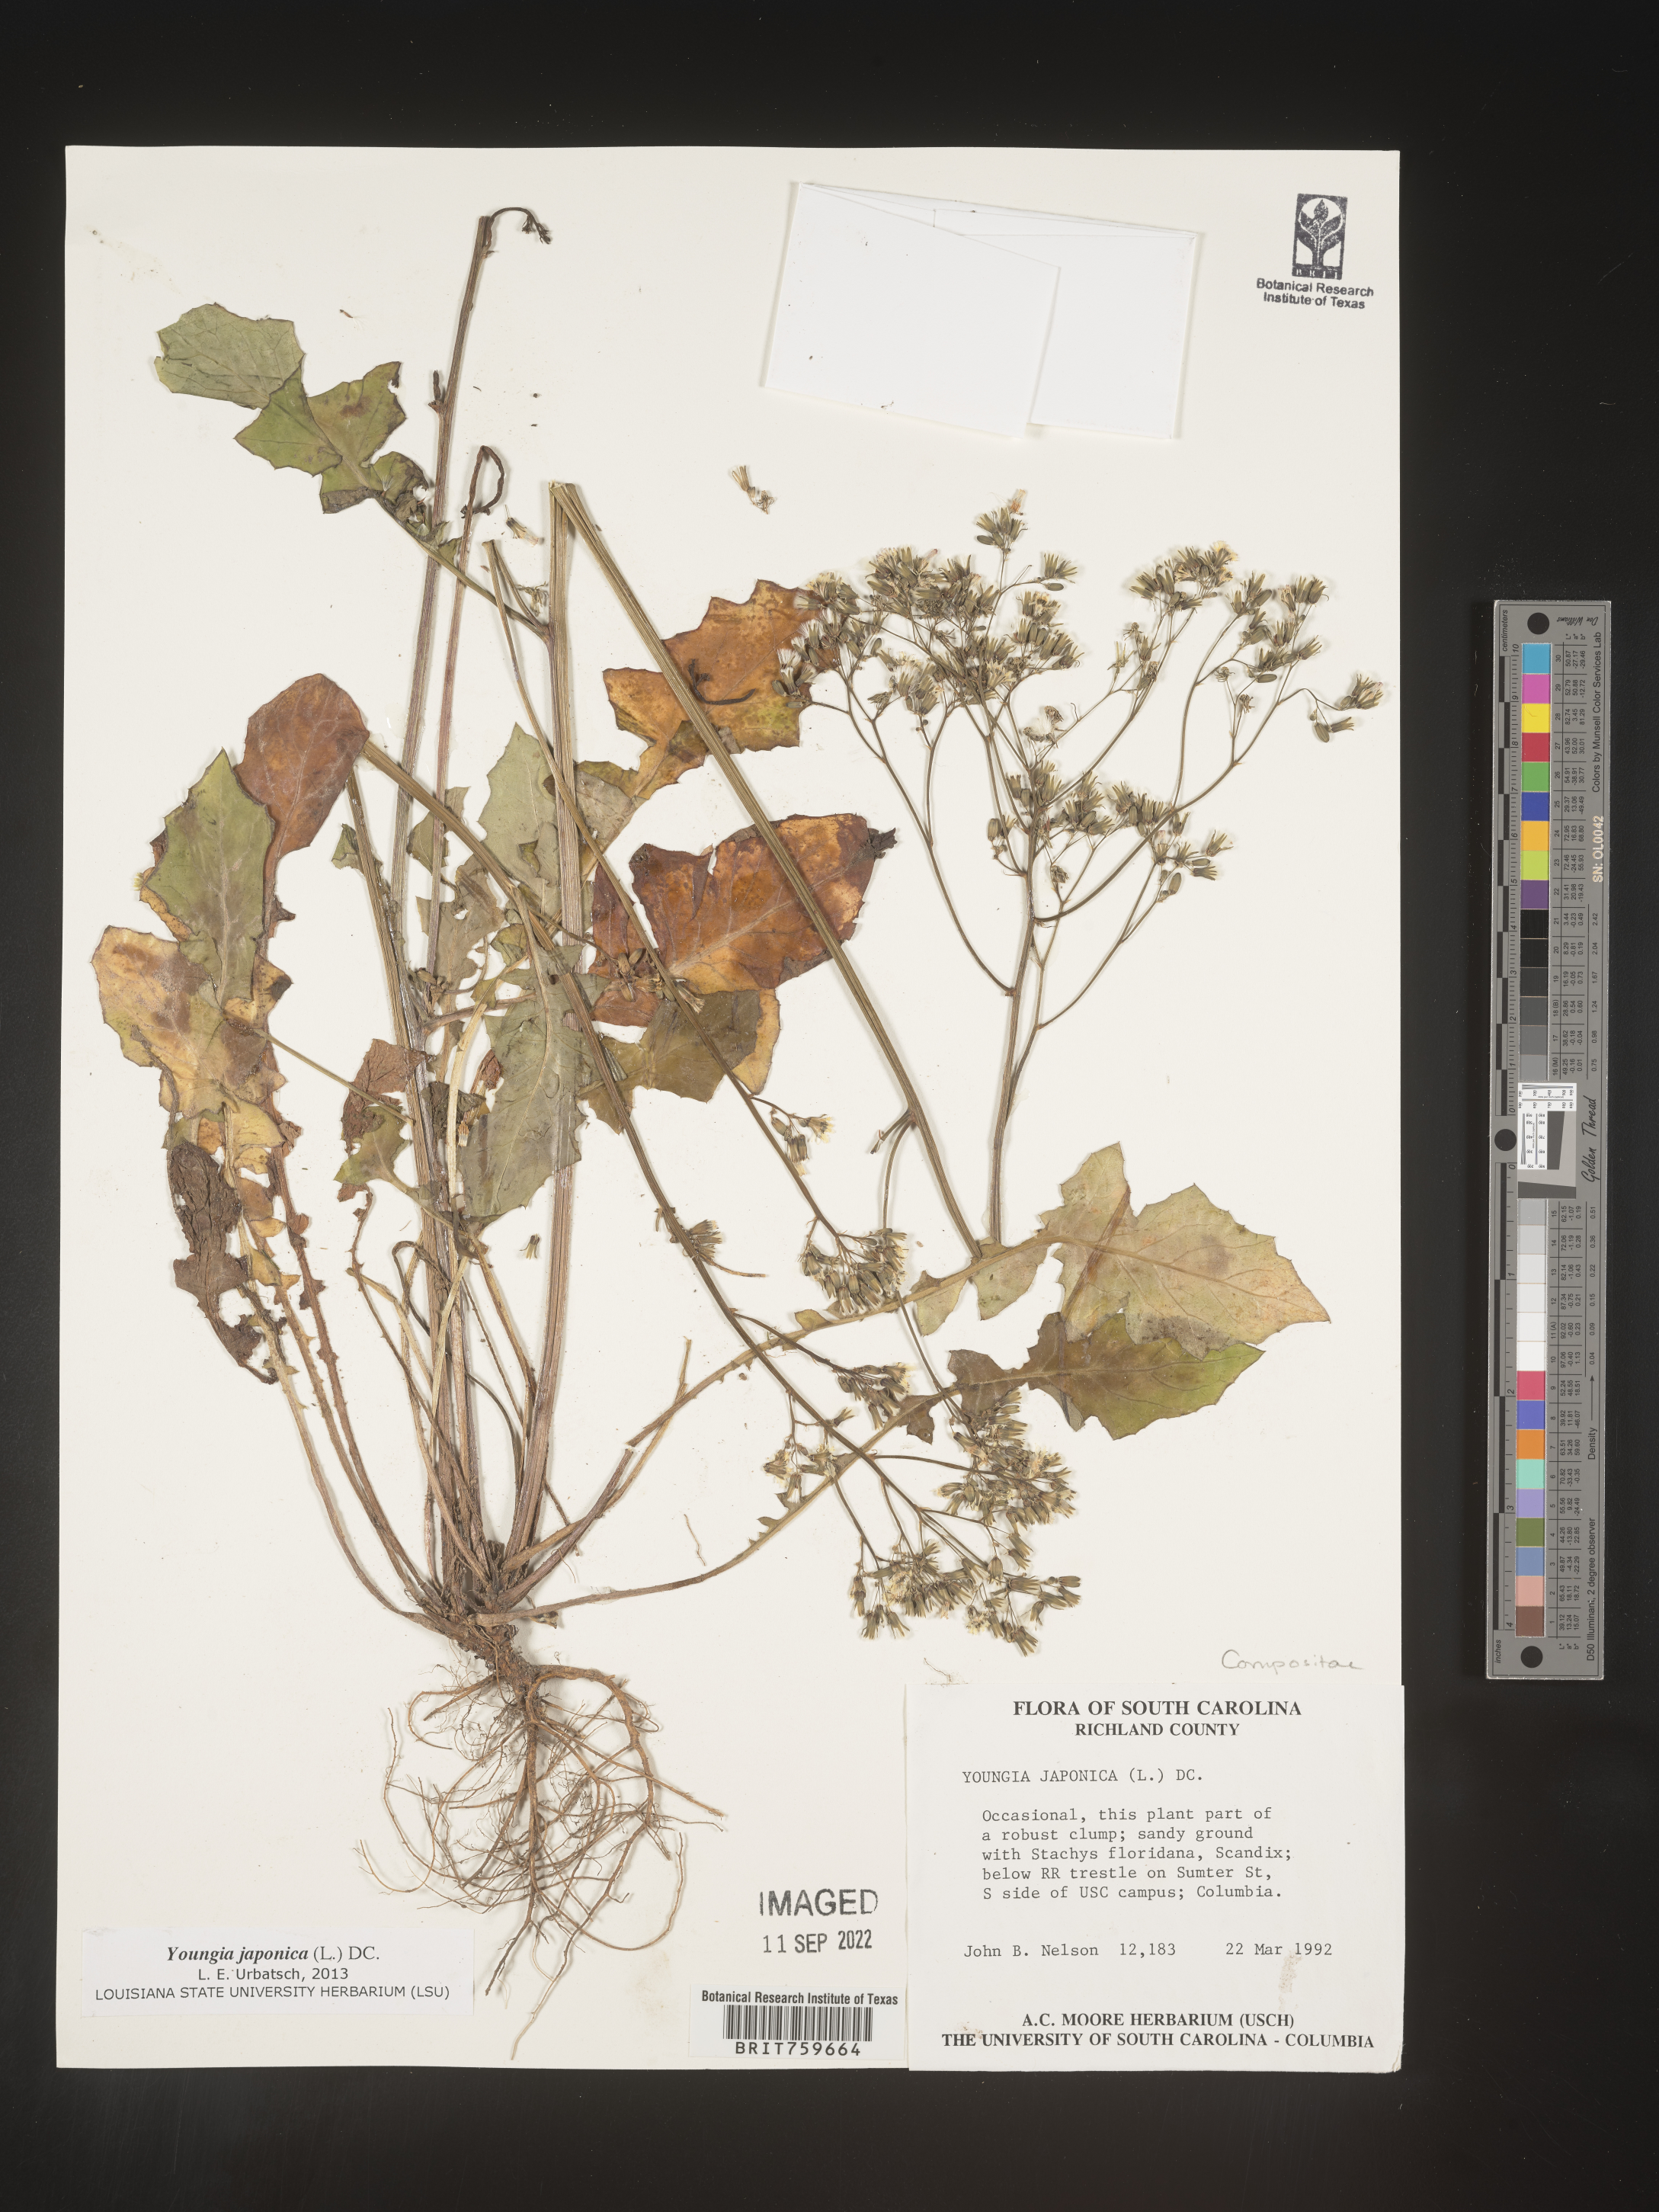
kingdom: Plantae
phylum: Tracheophyta
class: Magnoliopsida
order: Asterales
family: Asteraceae
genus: Youngia
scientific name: Youngia japonica
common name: Oriental false hawksbeard
